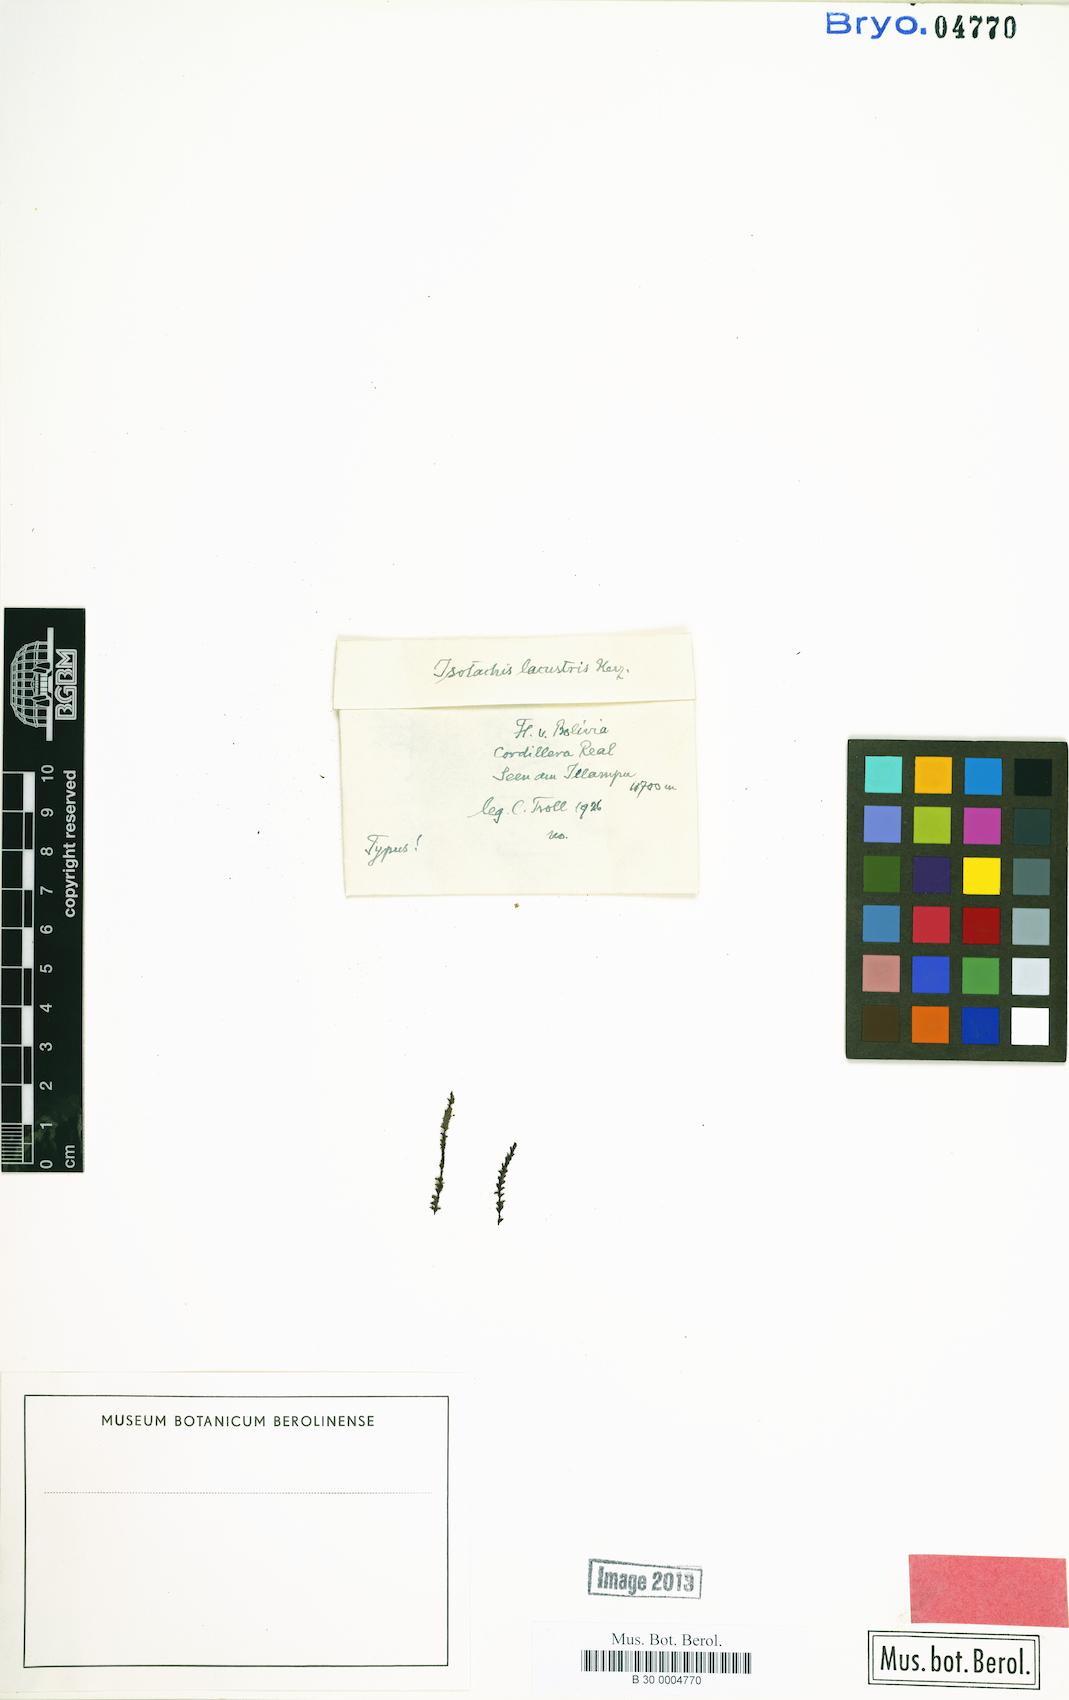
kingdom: Plantae
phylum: Marchantiophyta
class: Jungermanniopsida
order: Jungermanniales
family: Balantiopsidaceae
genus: Isotachis
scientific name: Isotachis obtusa
